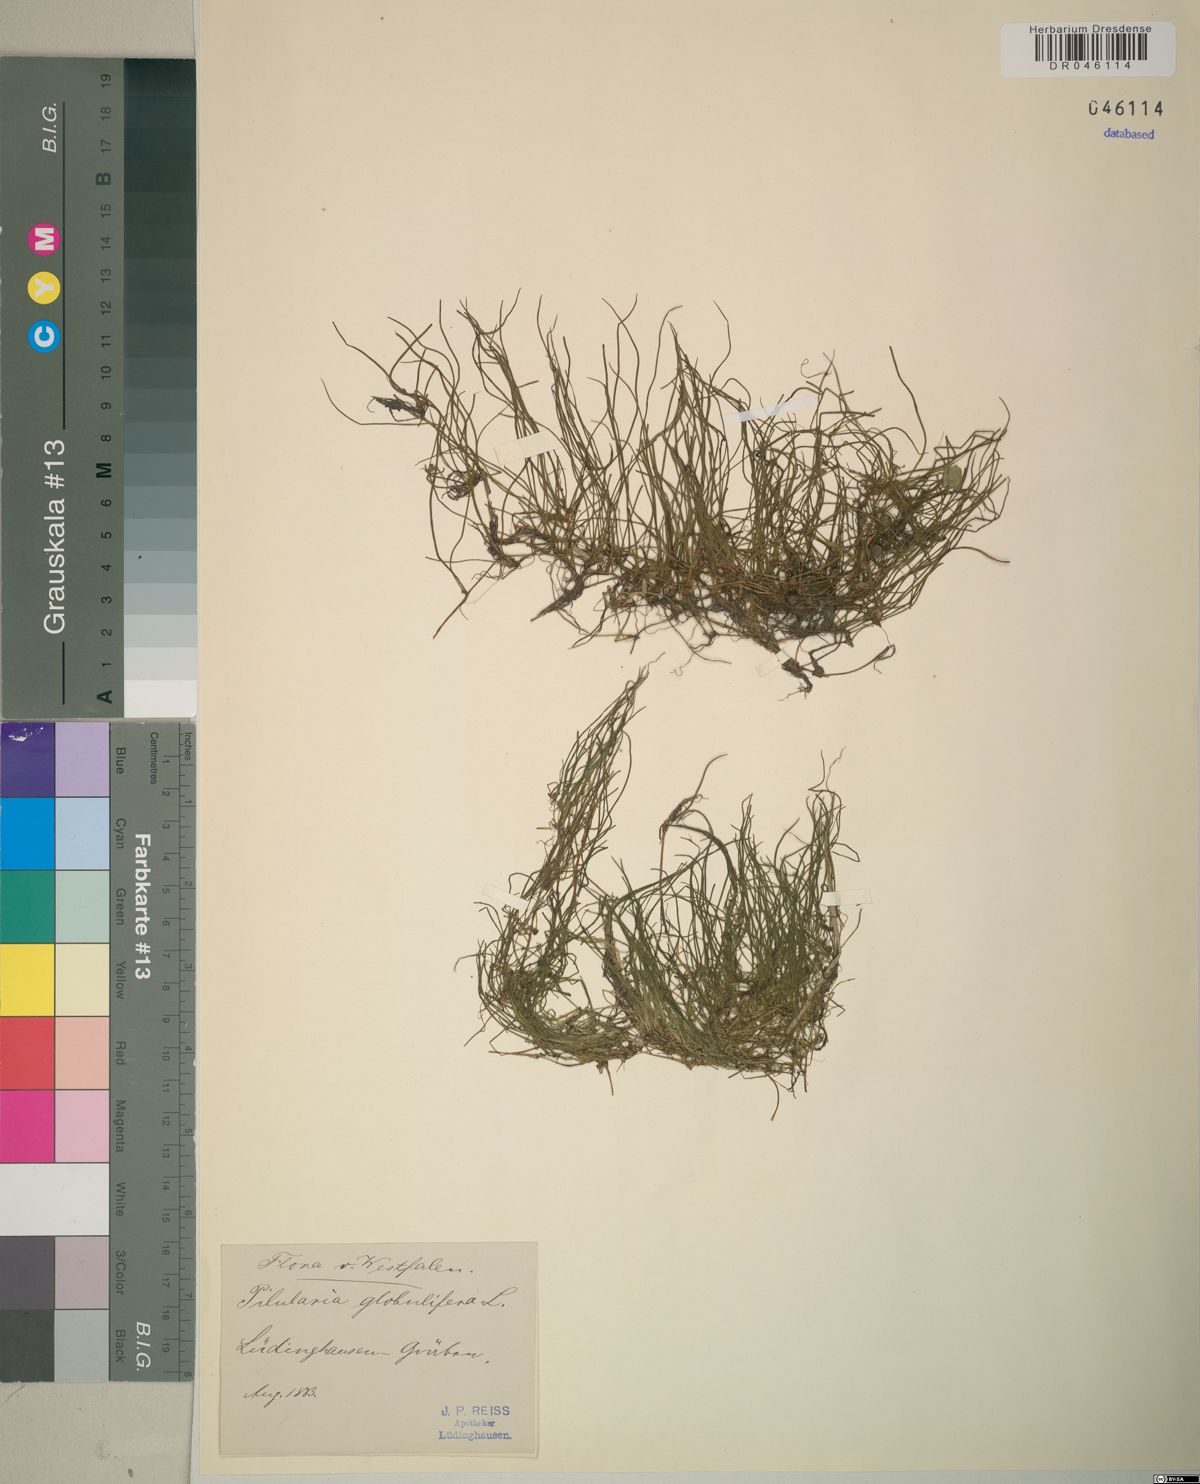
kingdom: Plantae
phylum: Tracheophyta
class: Polypodiopsida
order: Salviniales
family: Marsileaceae
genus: Pilularia
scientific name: Pilularia globulifera
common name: Pillwort
